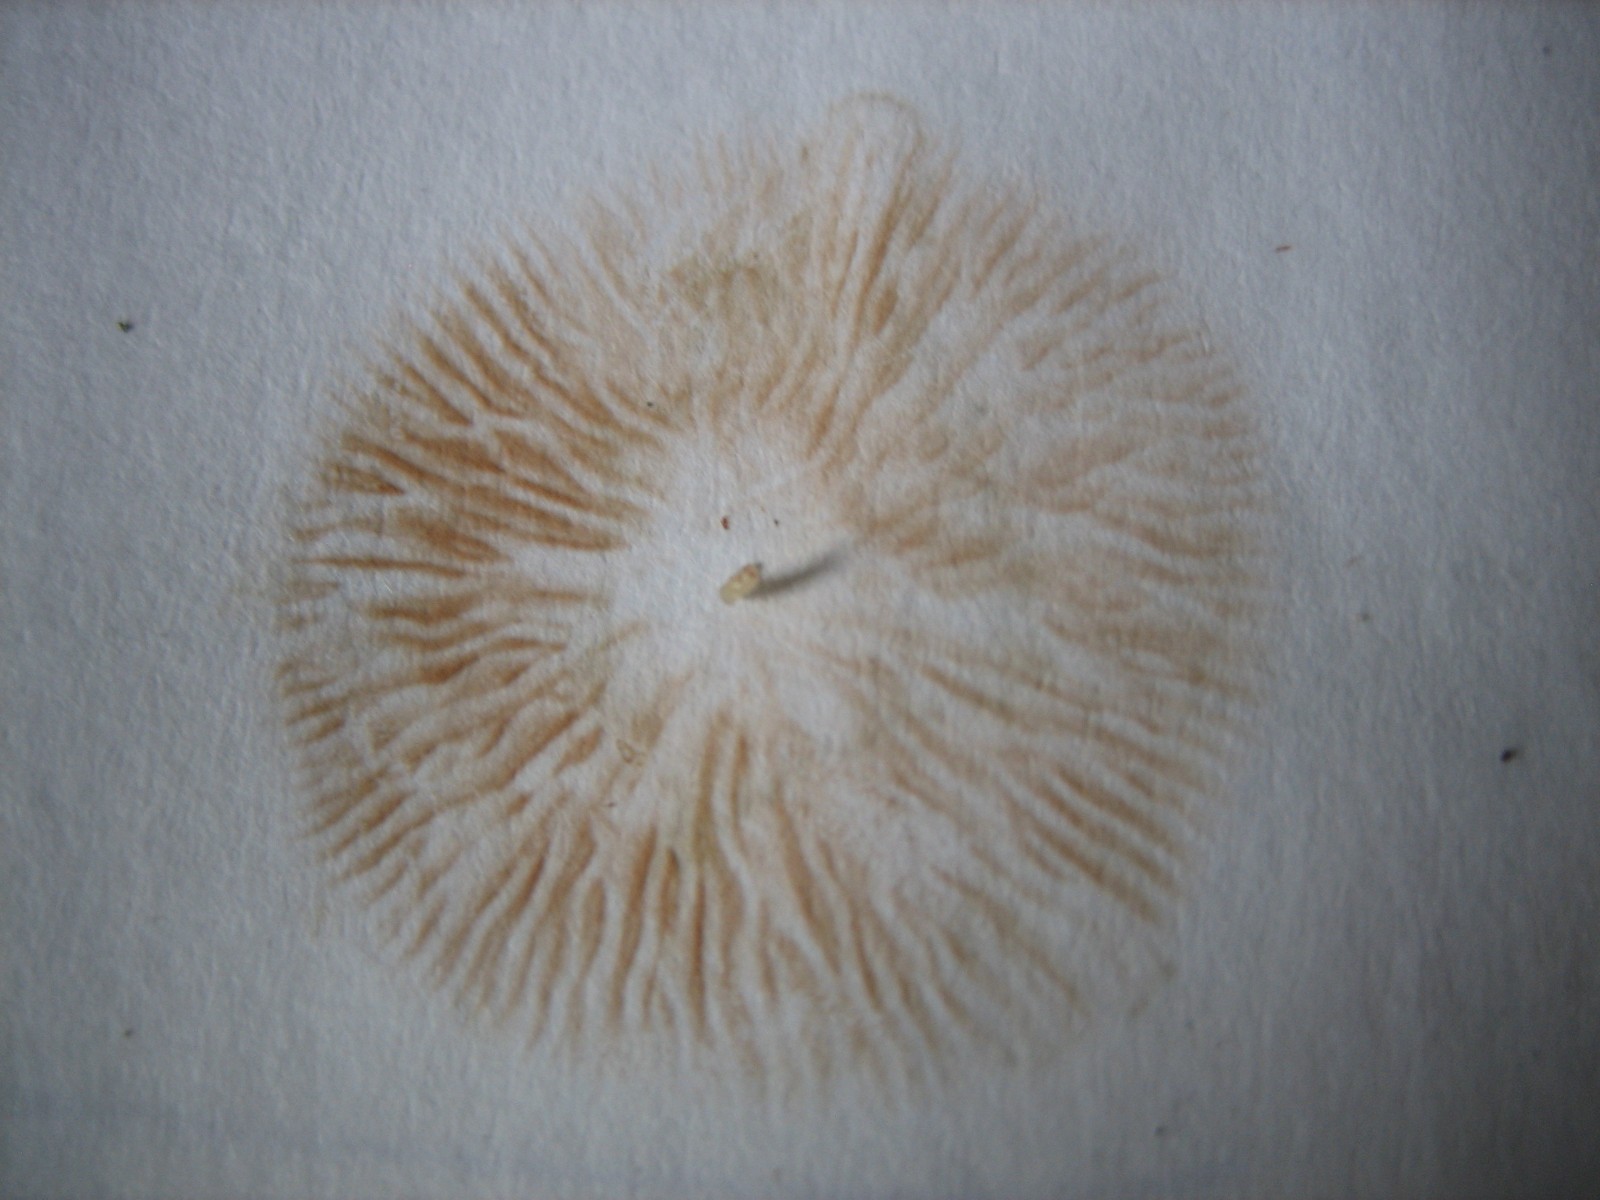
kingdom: Fungi
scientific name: Fungi
